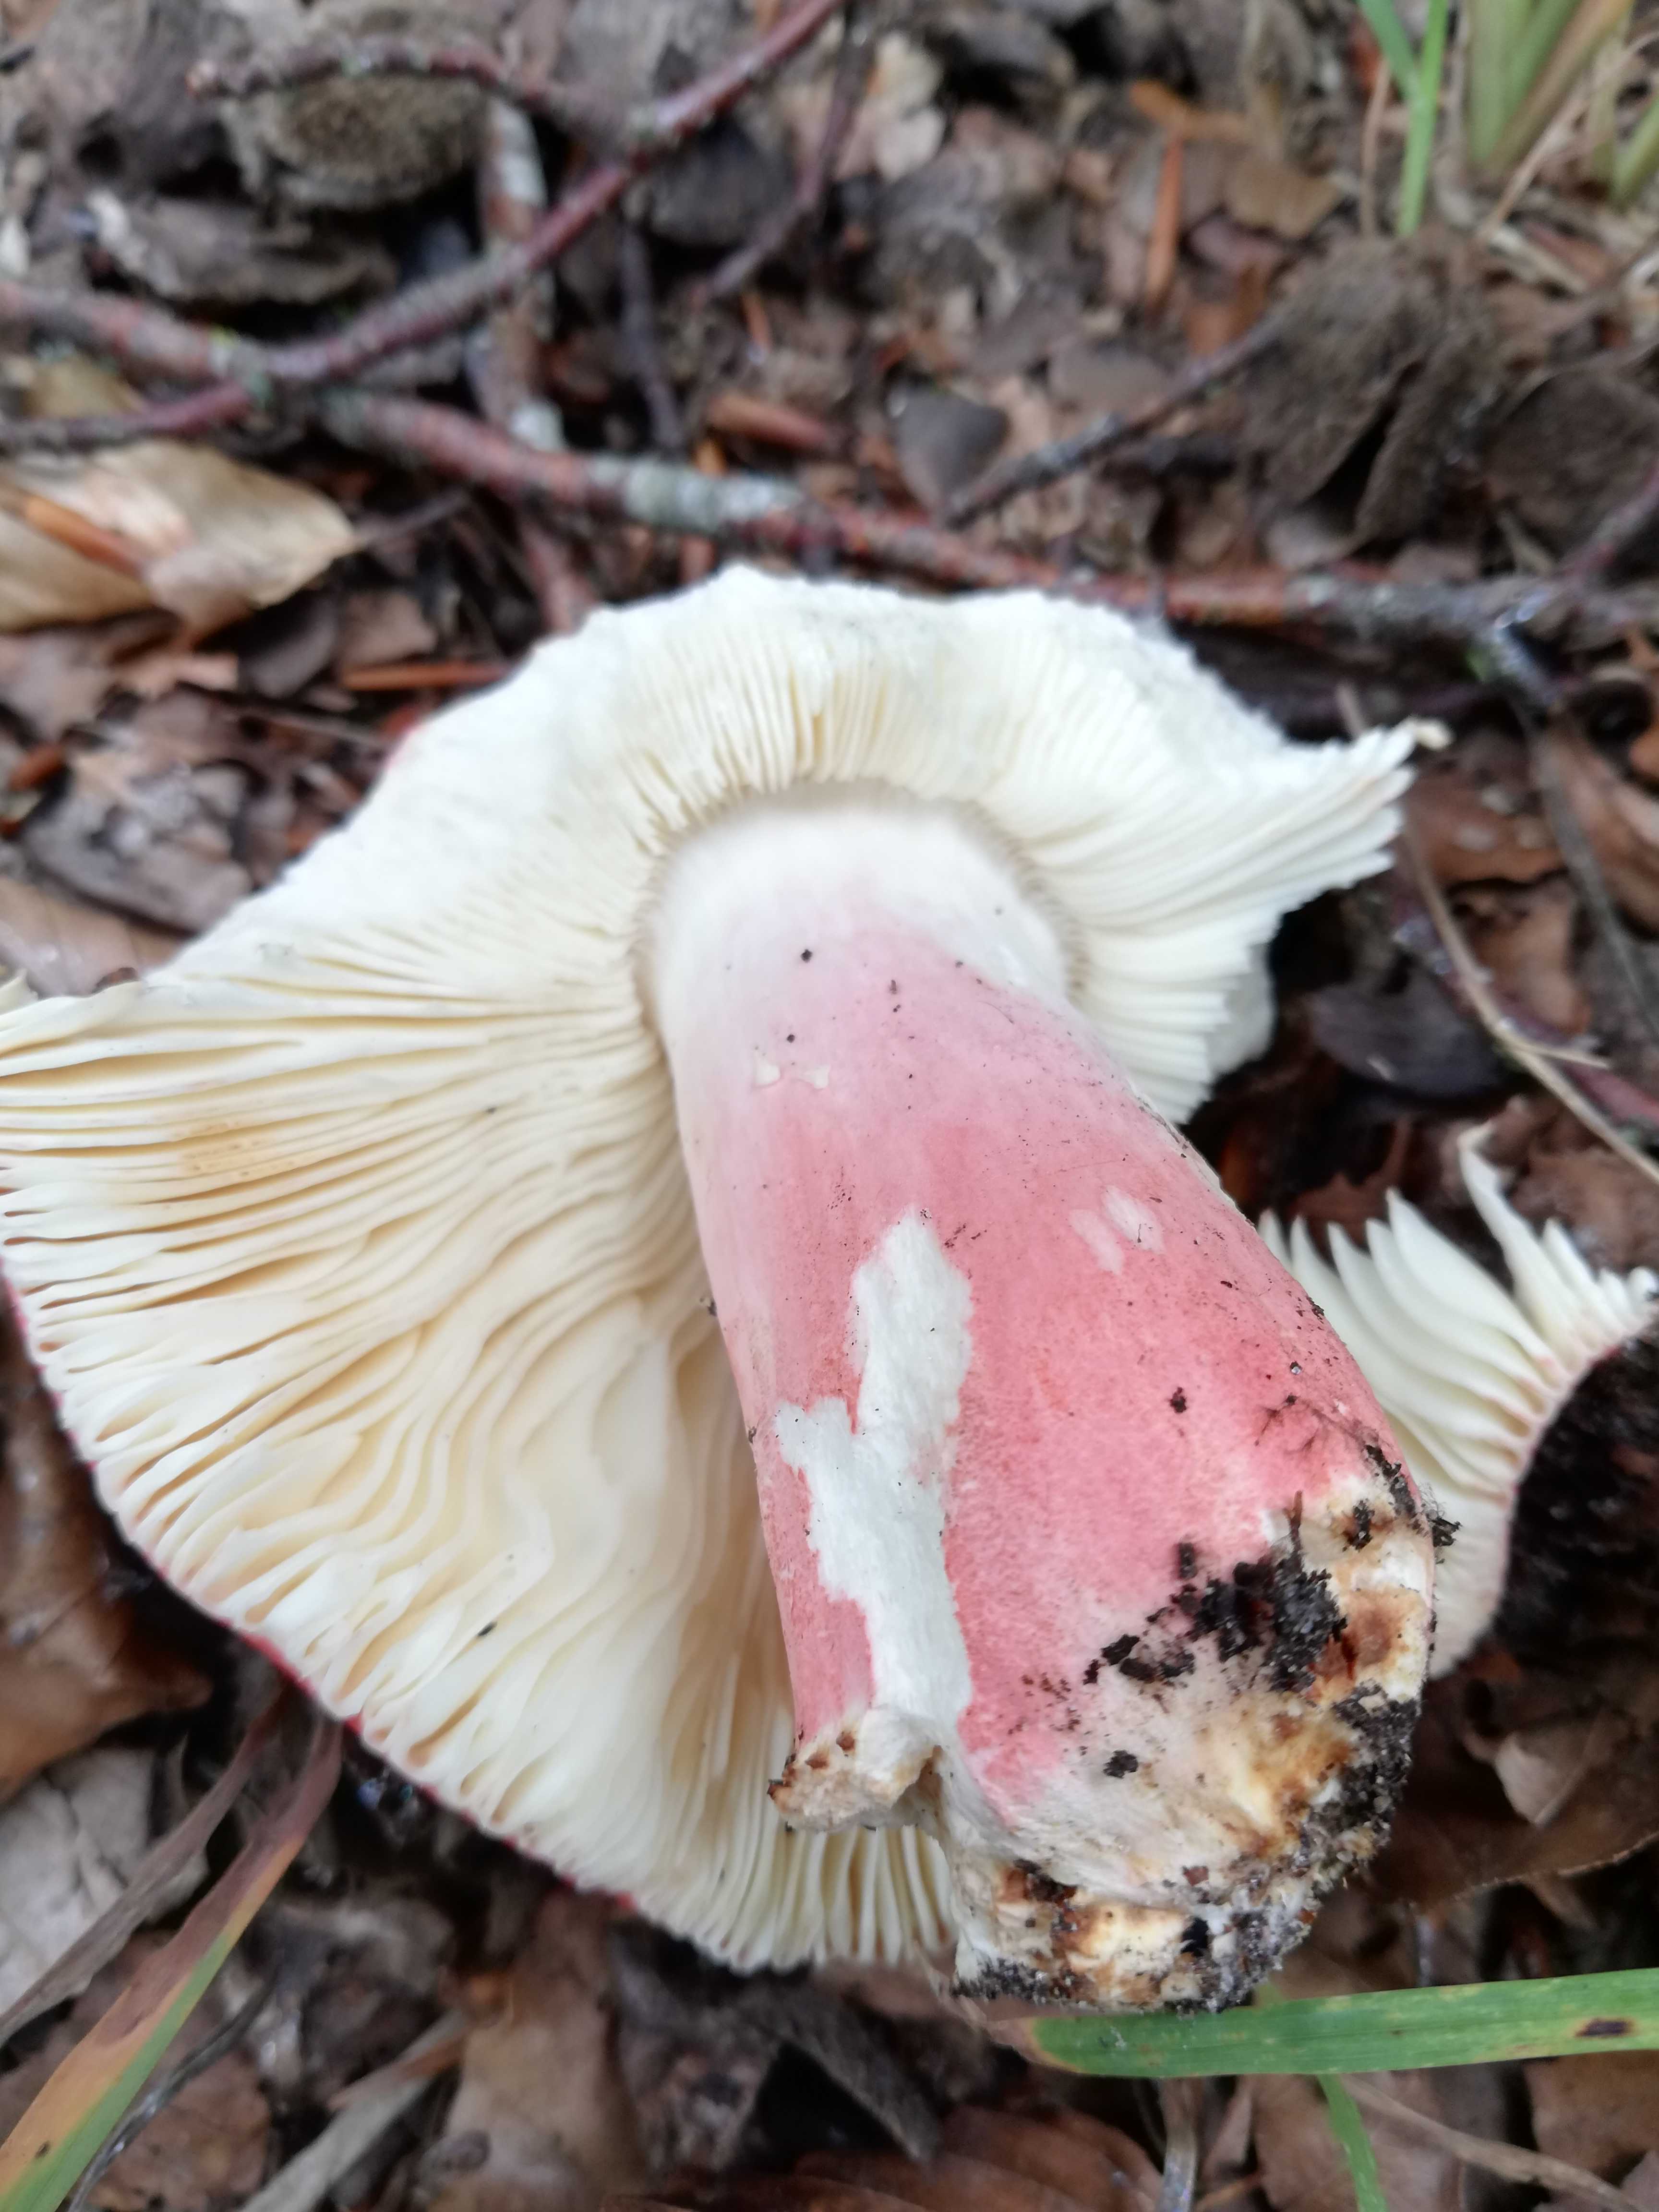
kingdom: Fungi
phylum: Basidiomycota
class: Agaricomycetes
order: Russulales
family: Russulaceae
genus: Russula
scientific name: Russula rosea
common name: fastkødet skørhat
